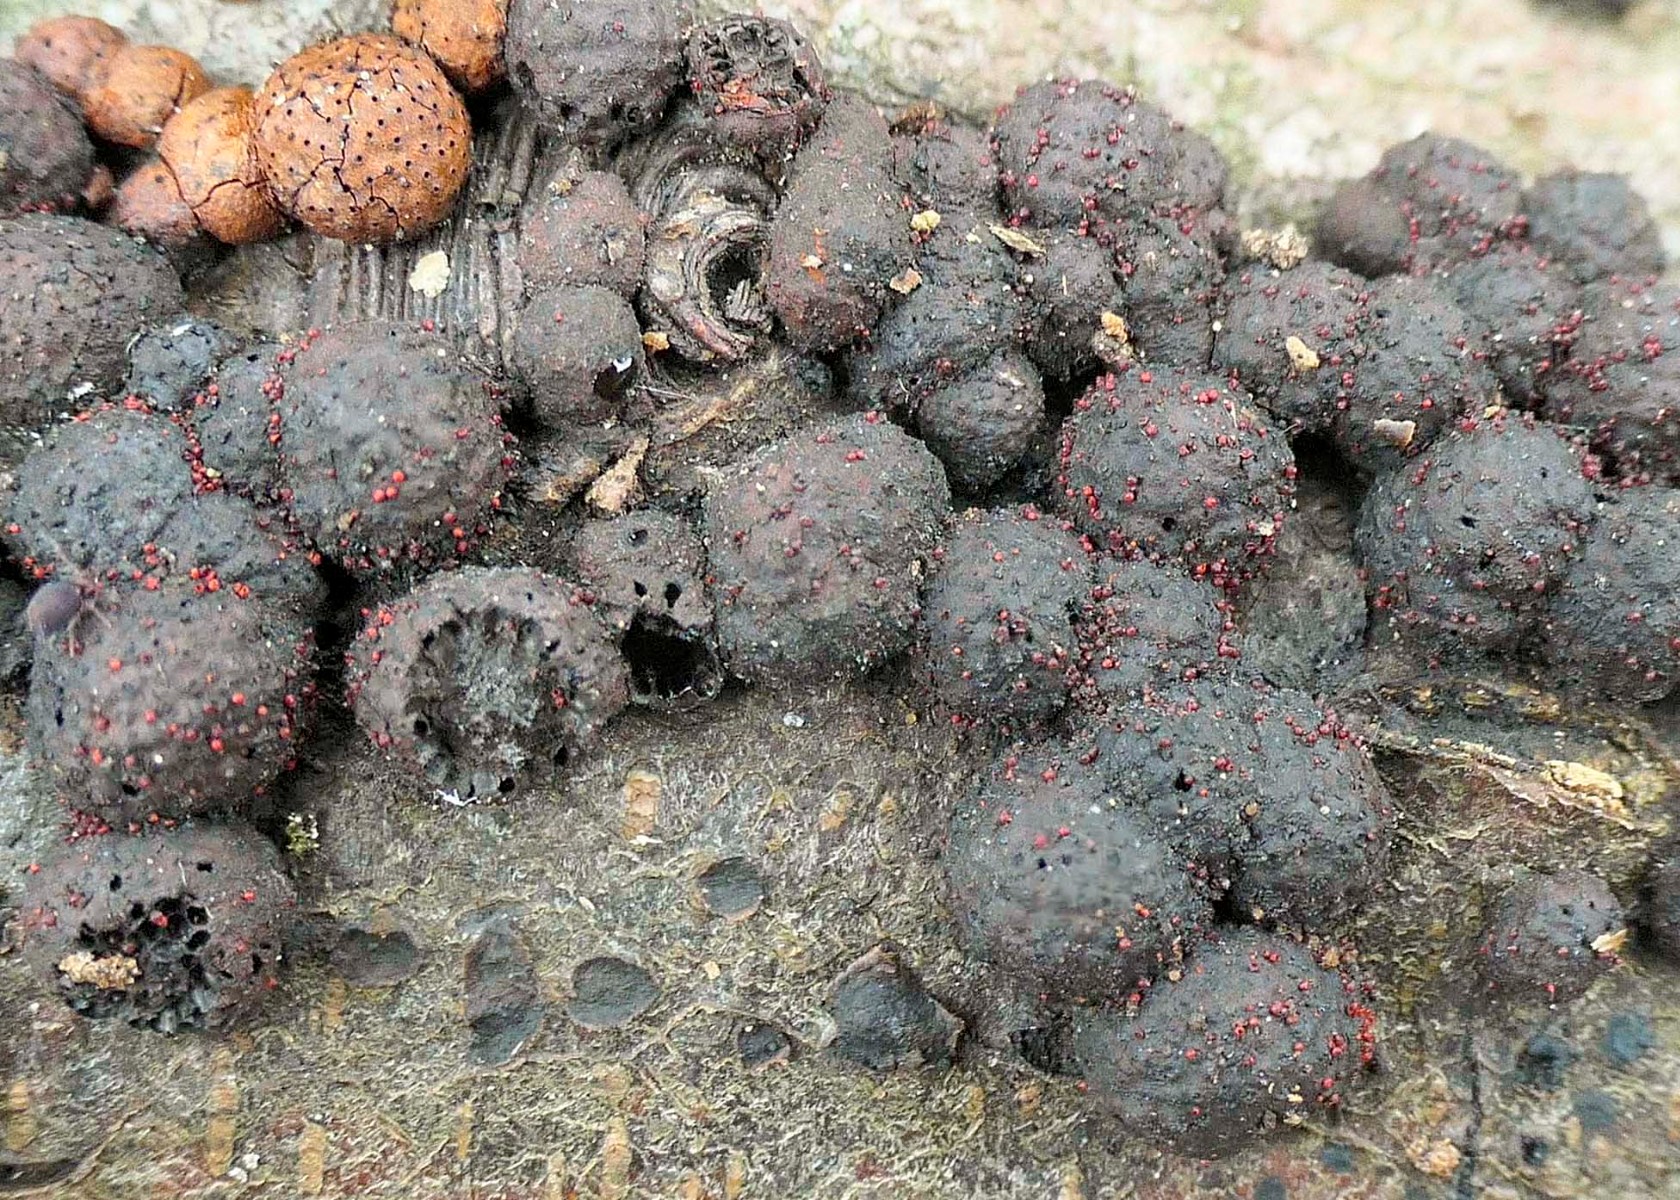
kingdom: Fungi
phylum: Ascomycota
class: Sordariomycetes
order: Hypocreales
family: Nectriaceae
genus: Cosmospora
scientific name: Cosmospora arxii
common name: kuljordbær-cinnobersvamp
